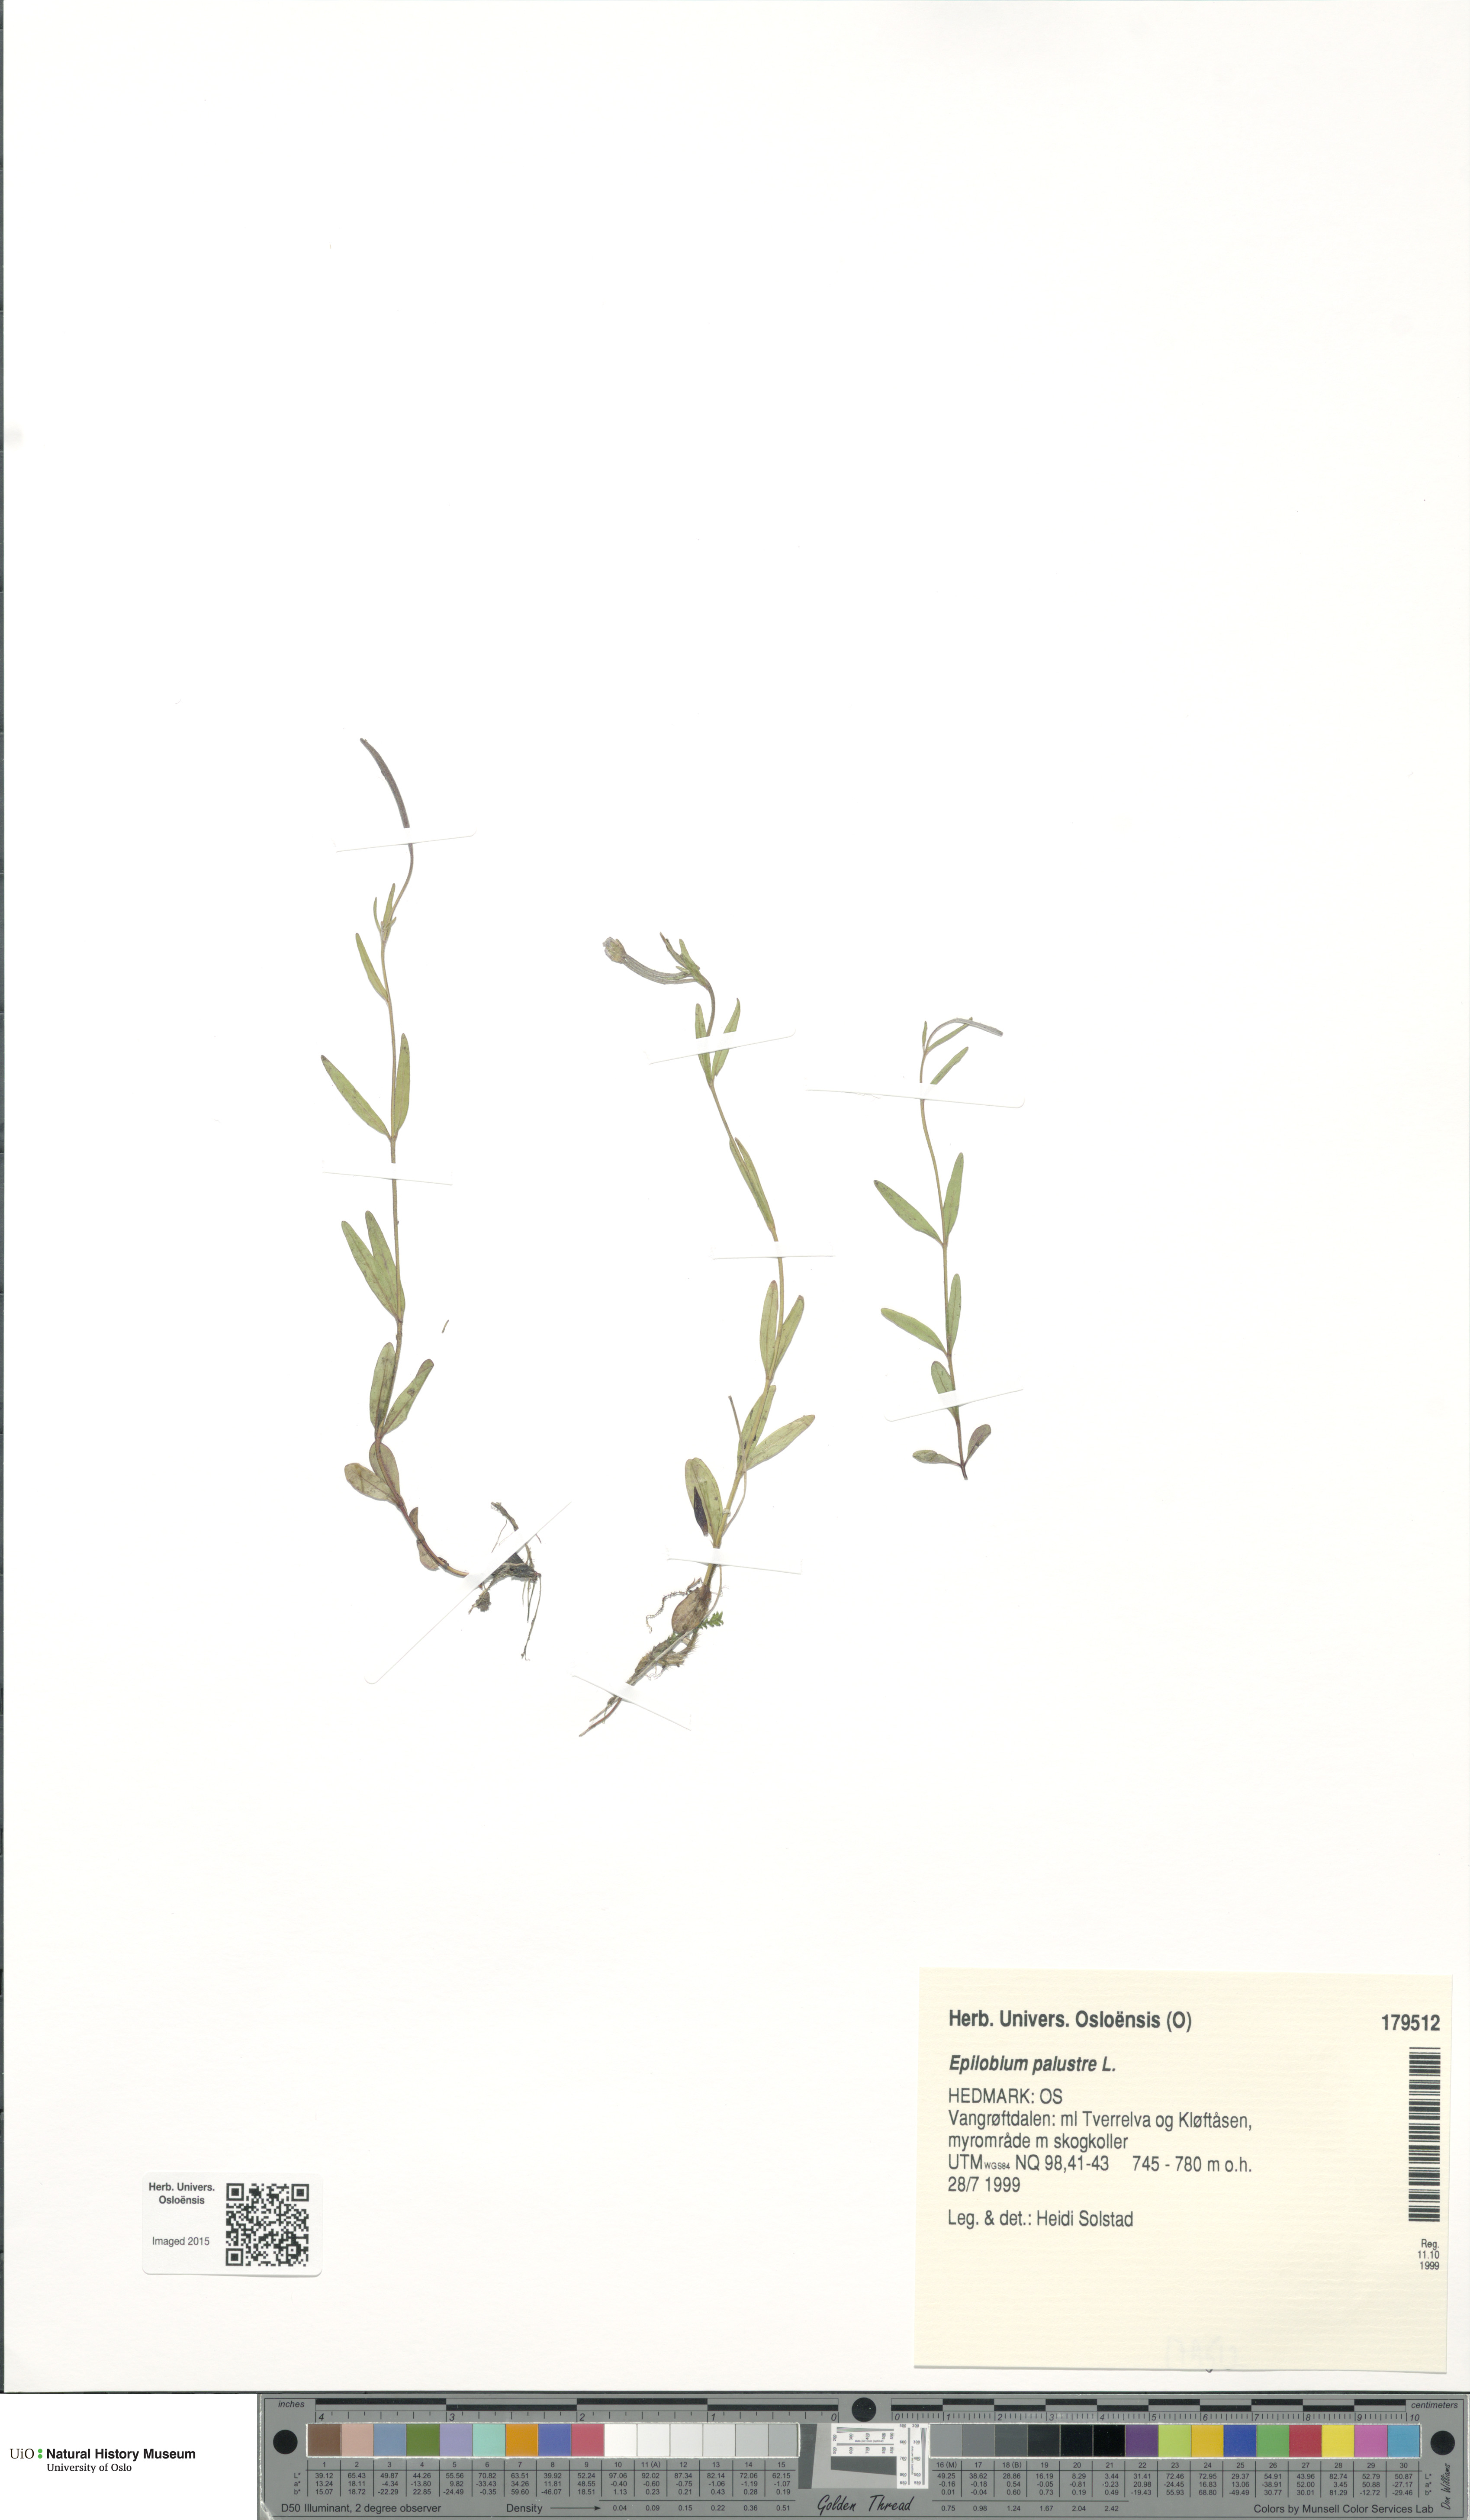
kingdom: Plantae
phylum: Tracheophyta
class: Magnoliopsida
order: Myrtales
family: Onagraceae
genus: Epilobium
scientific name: Epilobium palustre
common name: Marsh willowherb
